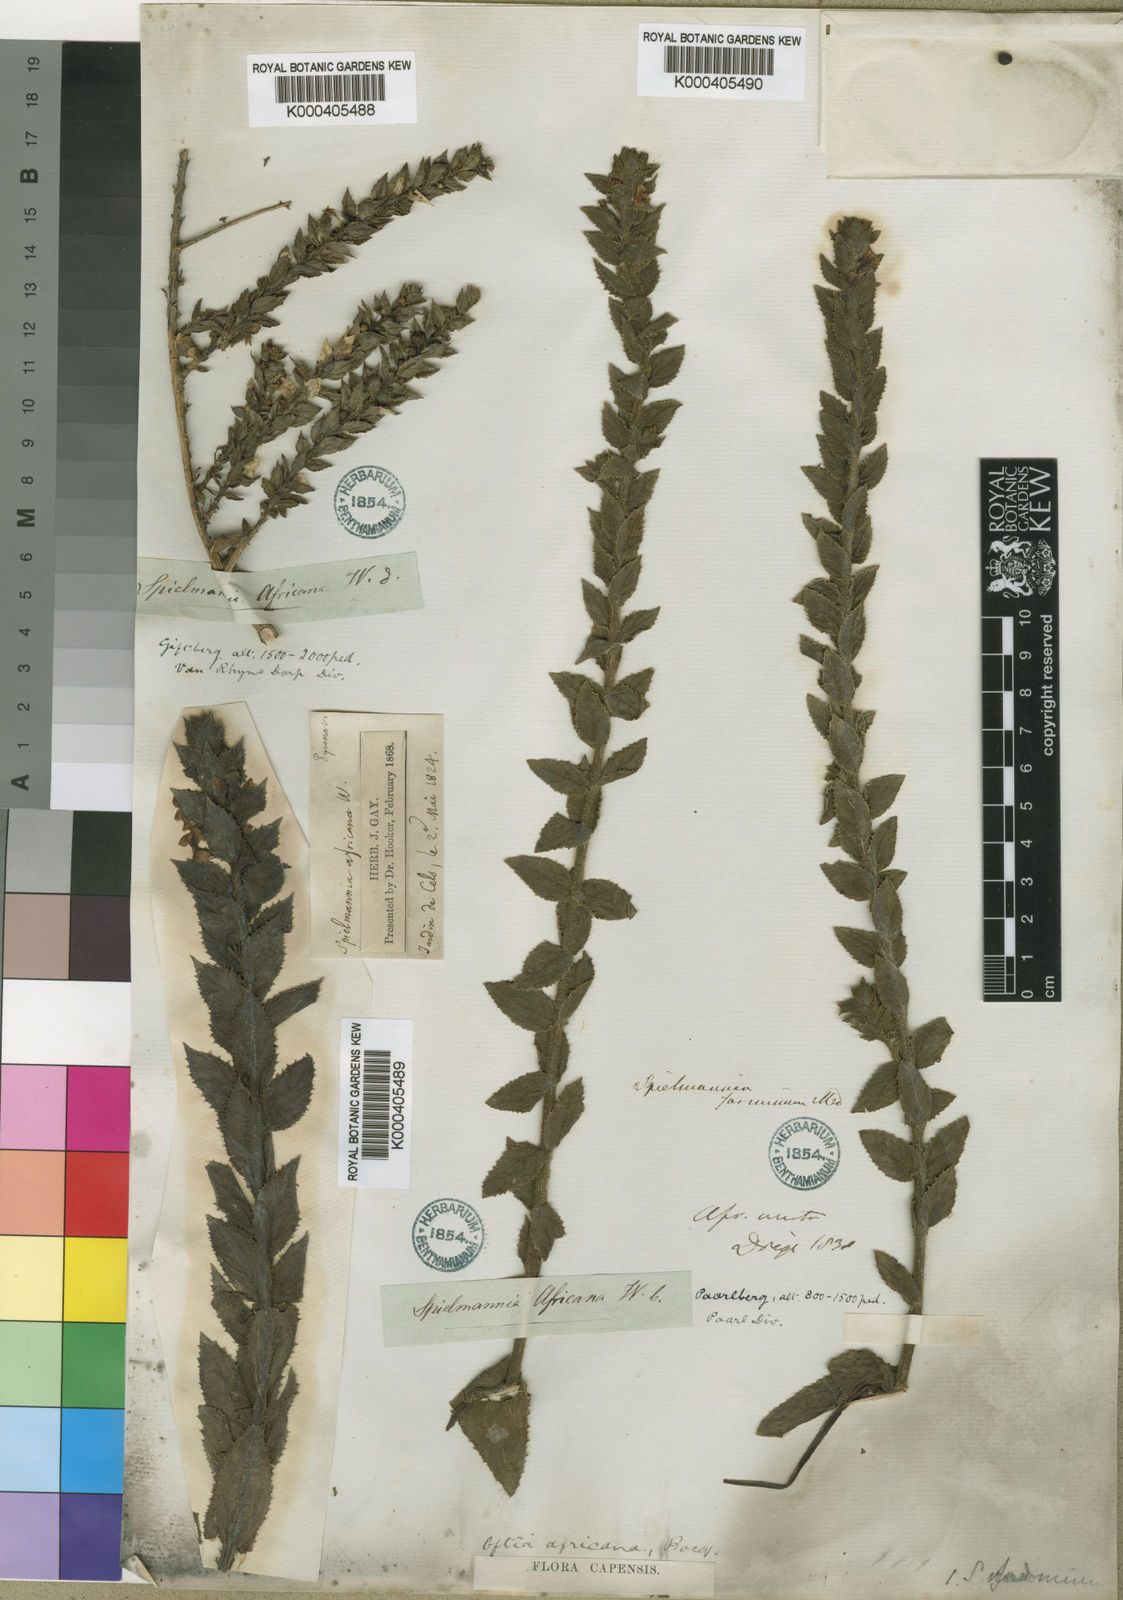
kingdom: Plantae
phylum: Tracheophyta
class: Magnoliopsida
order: Lamiales
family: Scrophulariaceae
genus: Oftia
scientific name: Oftia
